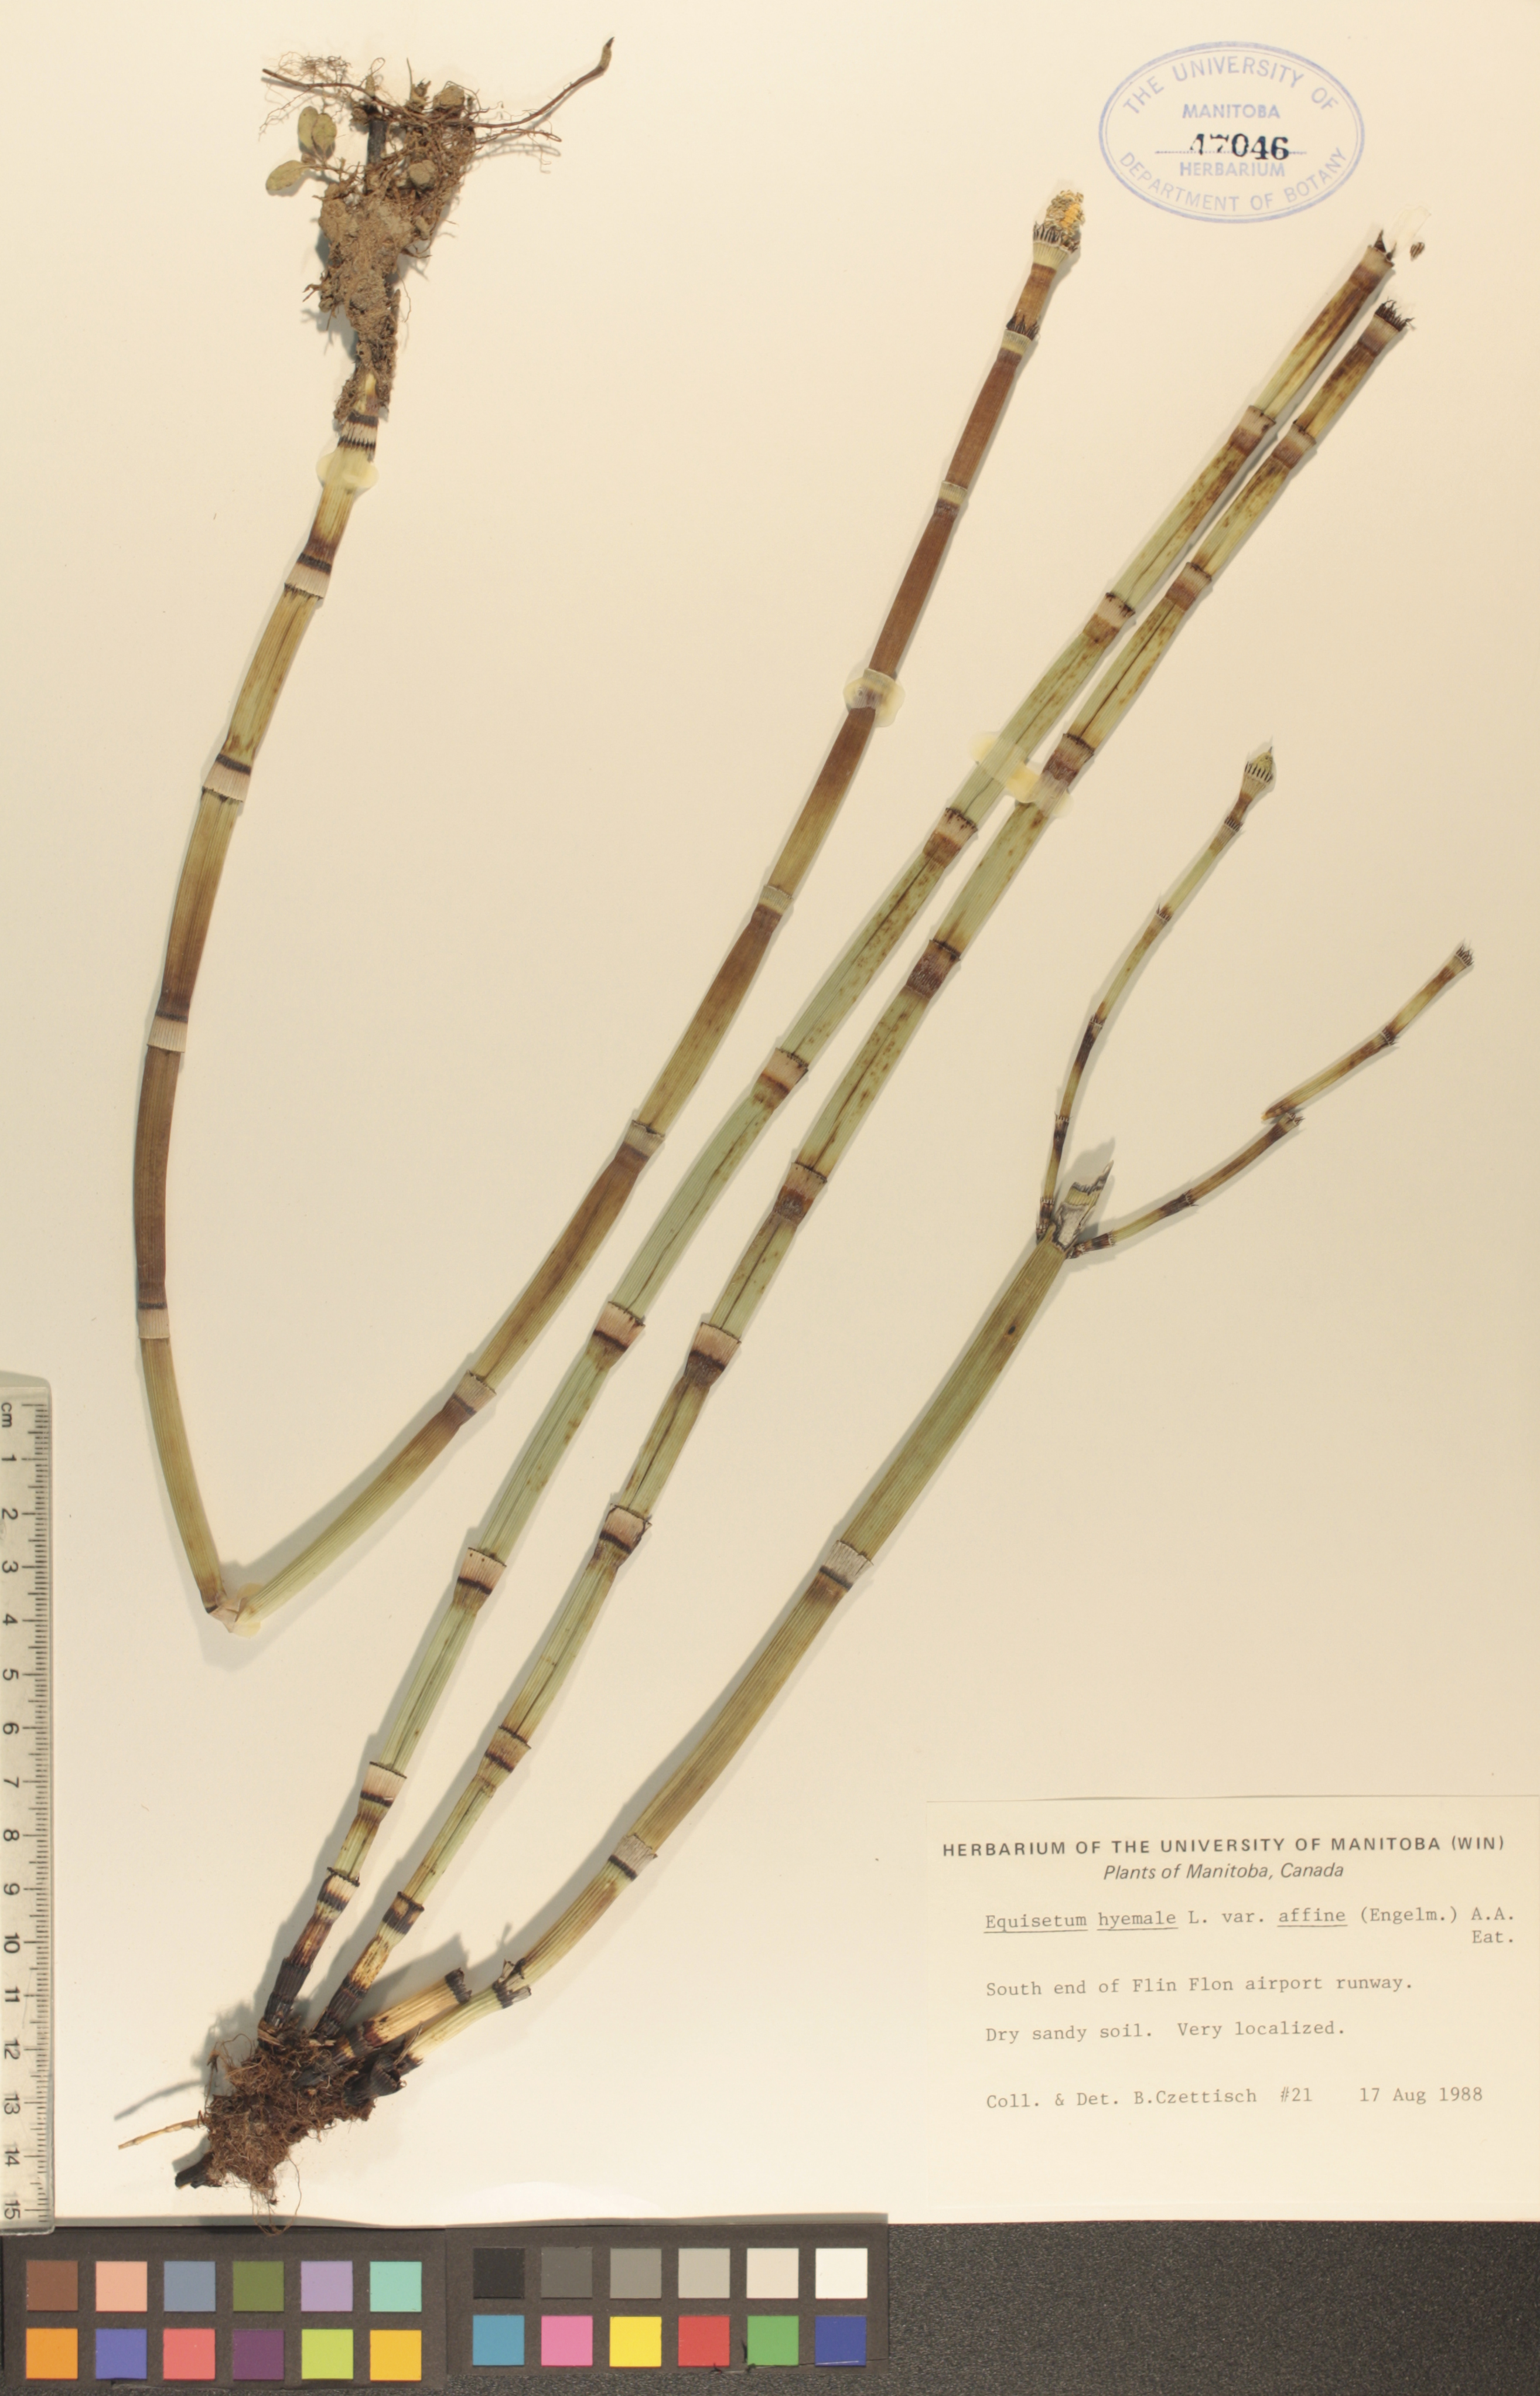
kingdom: Plantae
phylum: Tracheophyta
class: Polypodiopsida
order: Equisetales
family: Equisetaceae
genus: Equisetum
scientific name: Equisetum hyemale
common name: Rough horsetail
